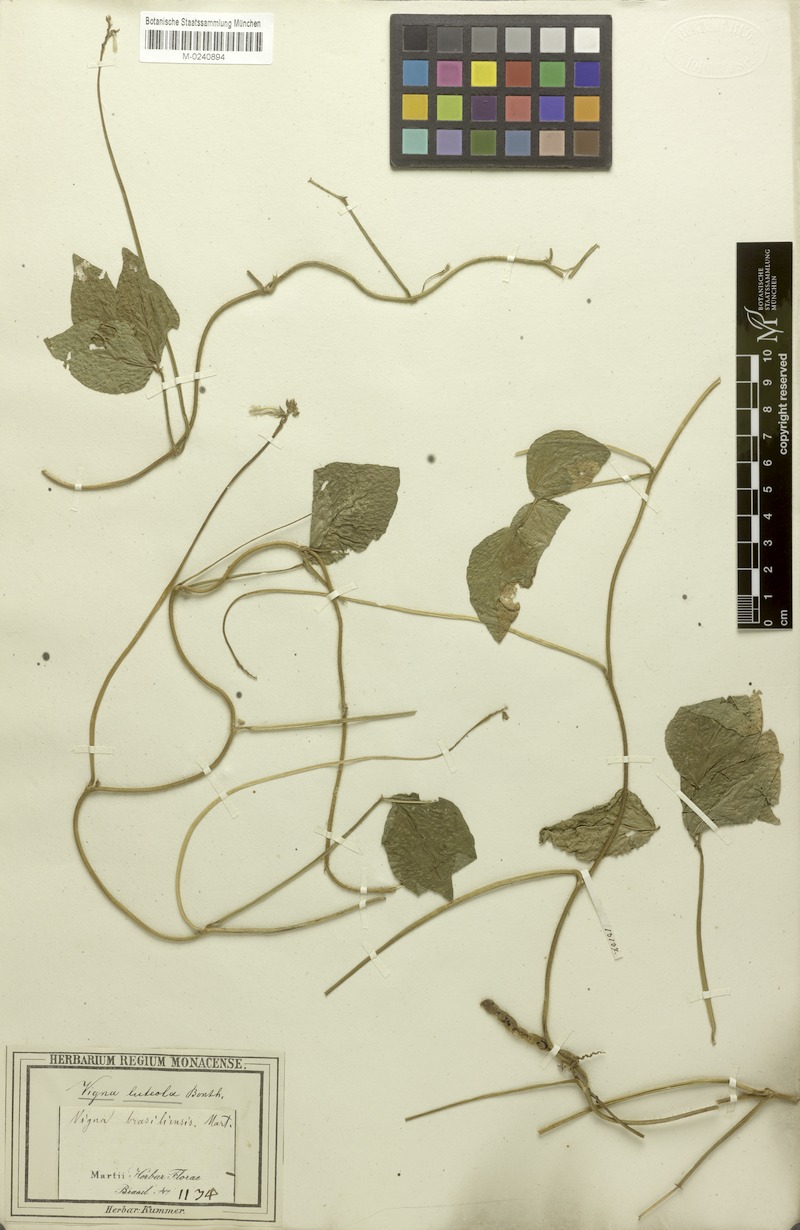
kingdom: Plantae
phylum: Tracheophyta
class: Magnoliopsida
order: Fabales
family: Fabaceae
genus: Vigna
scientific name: Vigna luteola
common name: Hairypod cowpea
